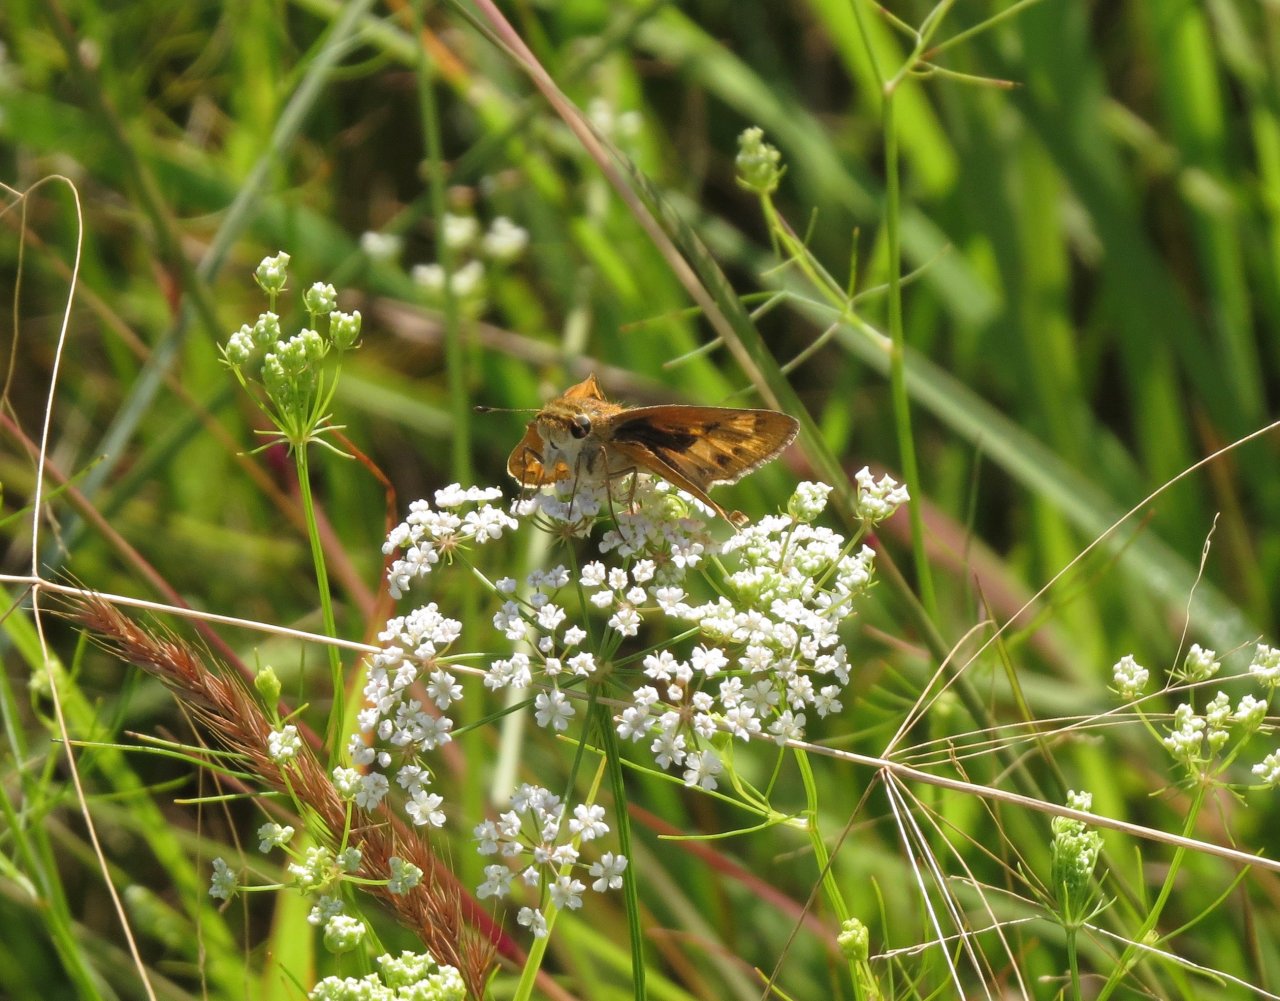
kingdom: Animalia
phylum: Arthropoda
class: Insecta
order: Lepidoptera
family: Hesperiidae
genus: Hylephila
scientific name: Hylephila phyleus
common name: Fiery Skipper
